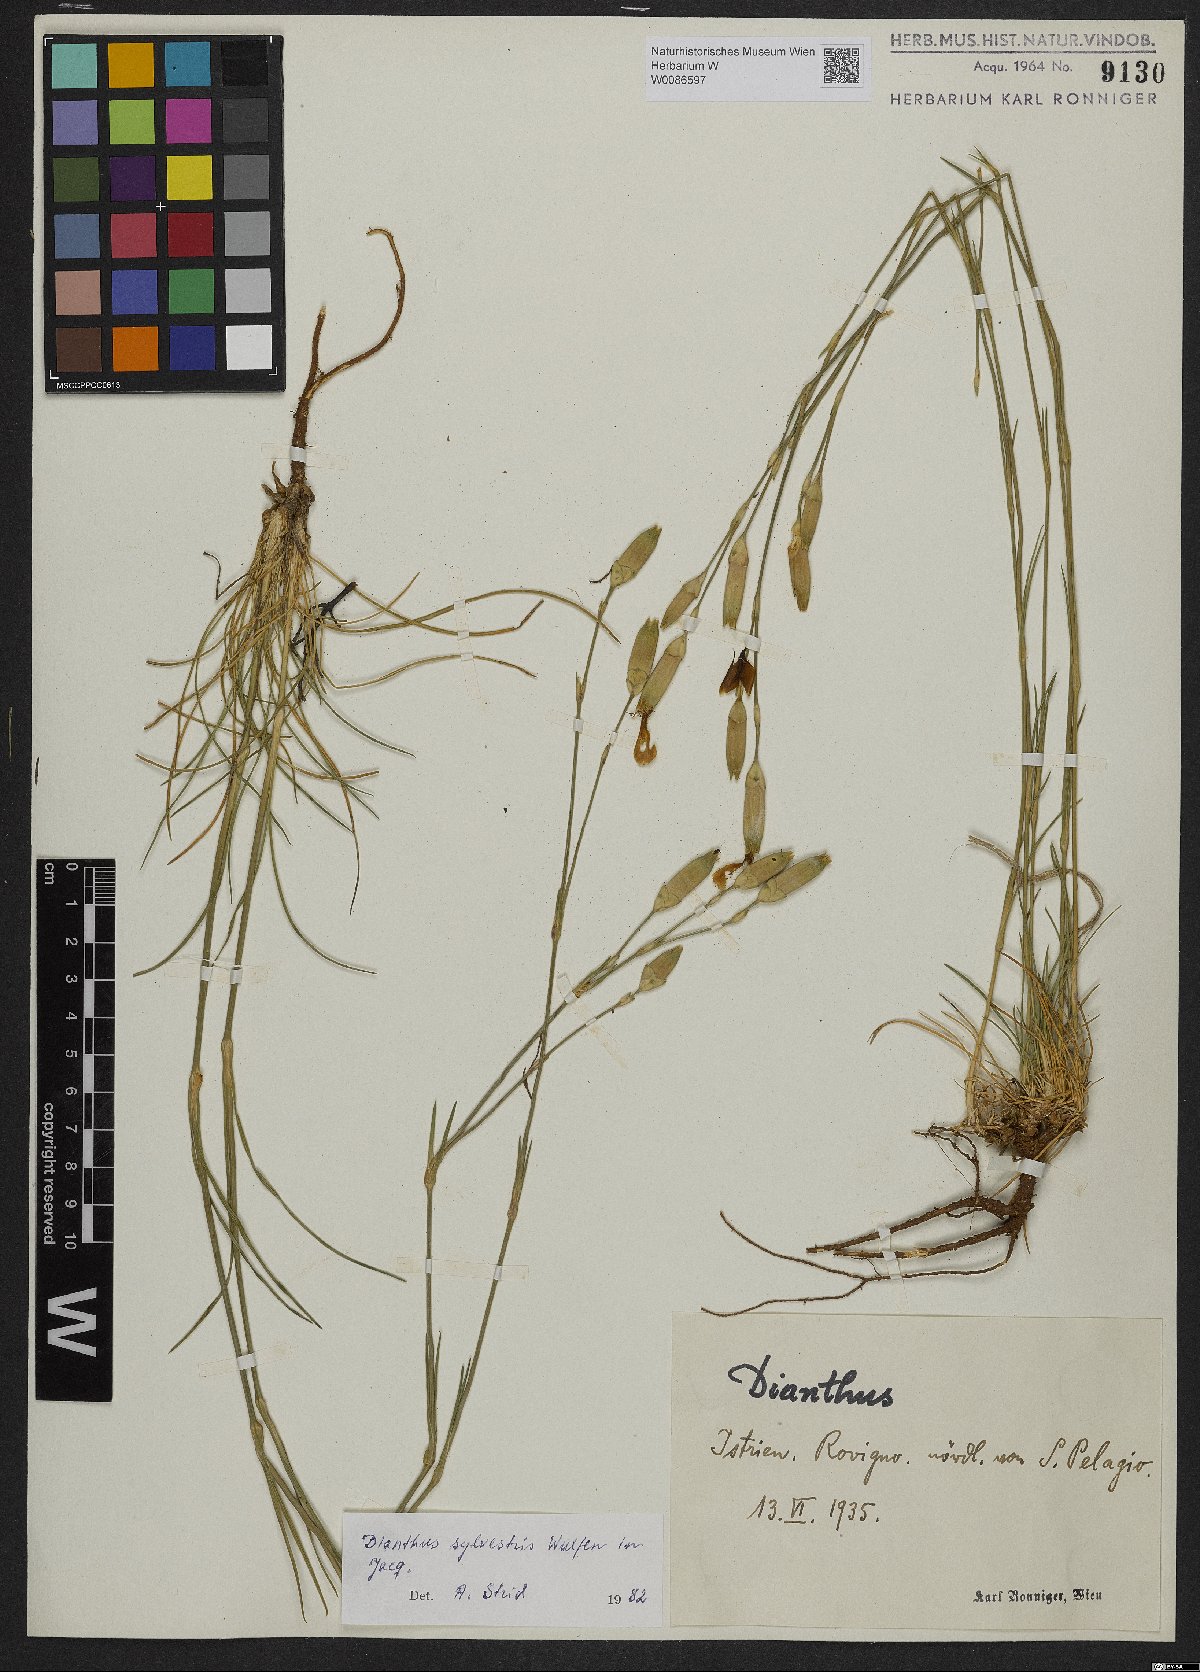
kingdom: Plantae
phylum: Tracheophyta
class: Magnoliopsida
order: Caryophyllales
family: Caryophyllaceae
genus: Dianthus
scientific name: Dianthus sylvestris
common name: Wood pink
